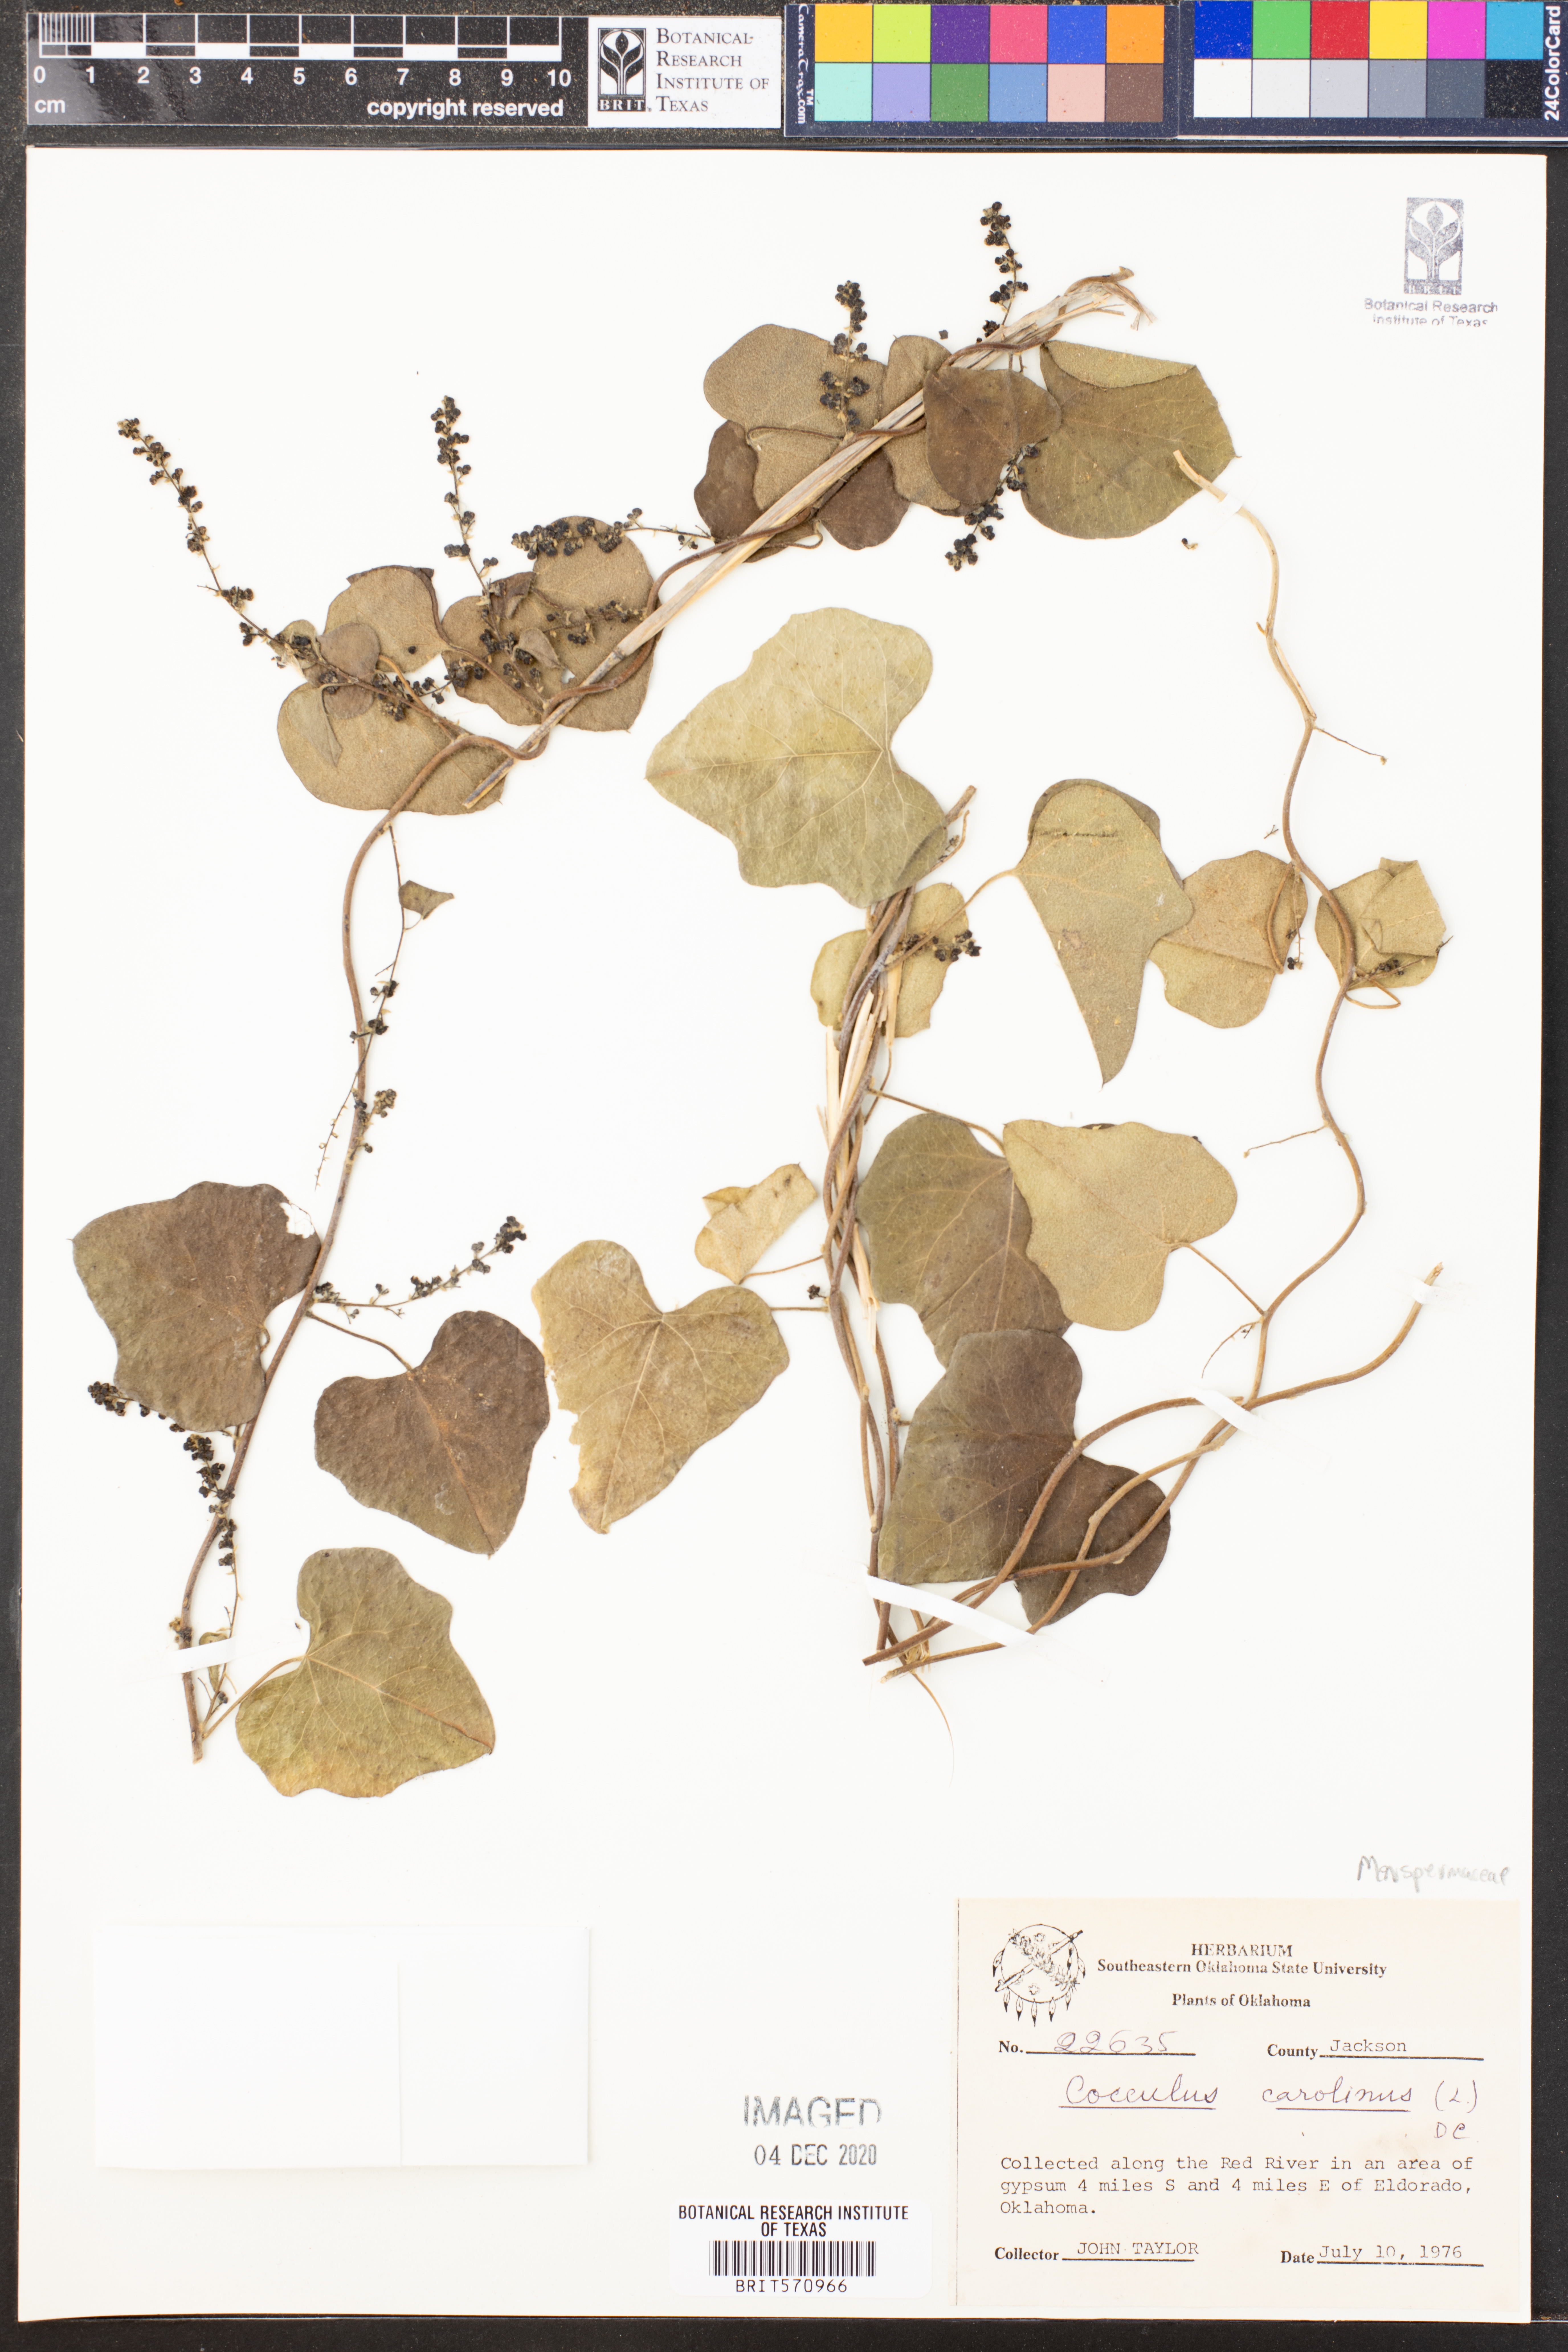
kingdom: Plantae
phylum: Tracheophyta
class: Magnoliopsida
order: Ranunculales
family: Menispermaceae
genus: Cocculus
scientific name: Cocculus carolinus
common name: Carolina moonseed
